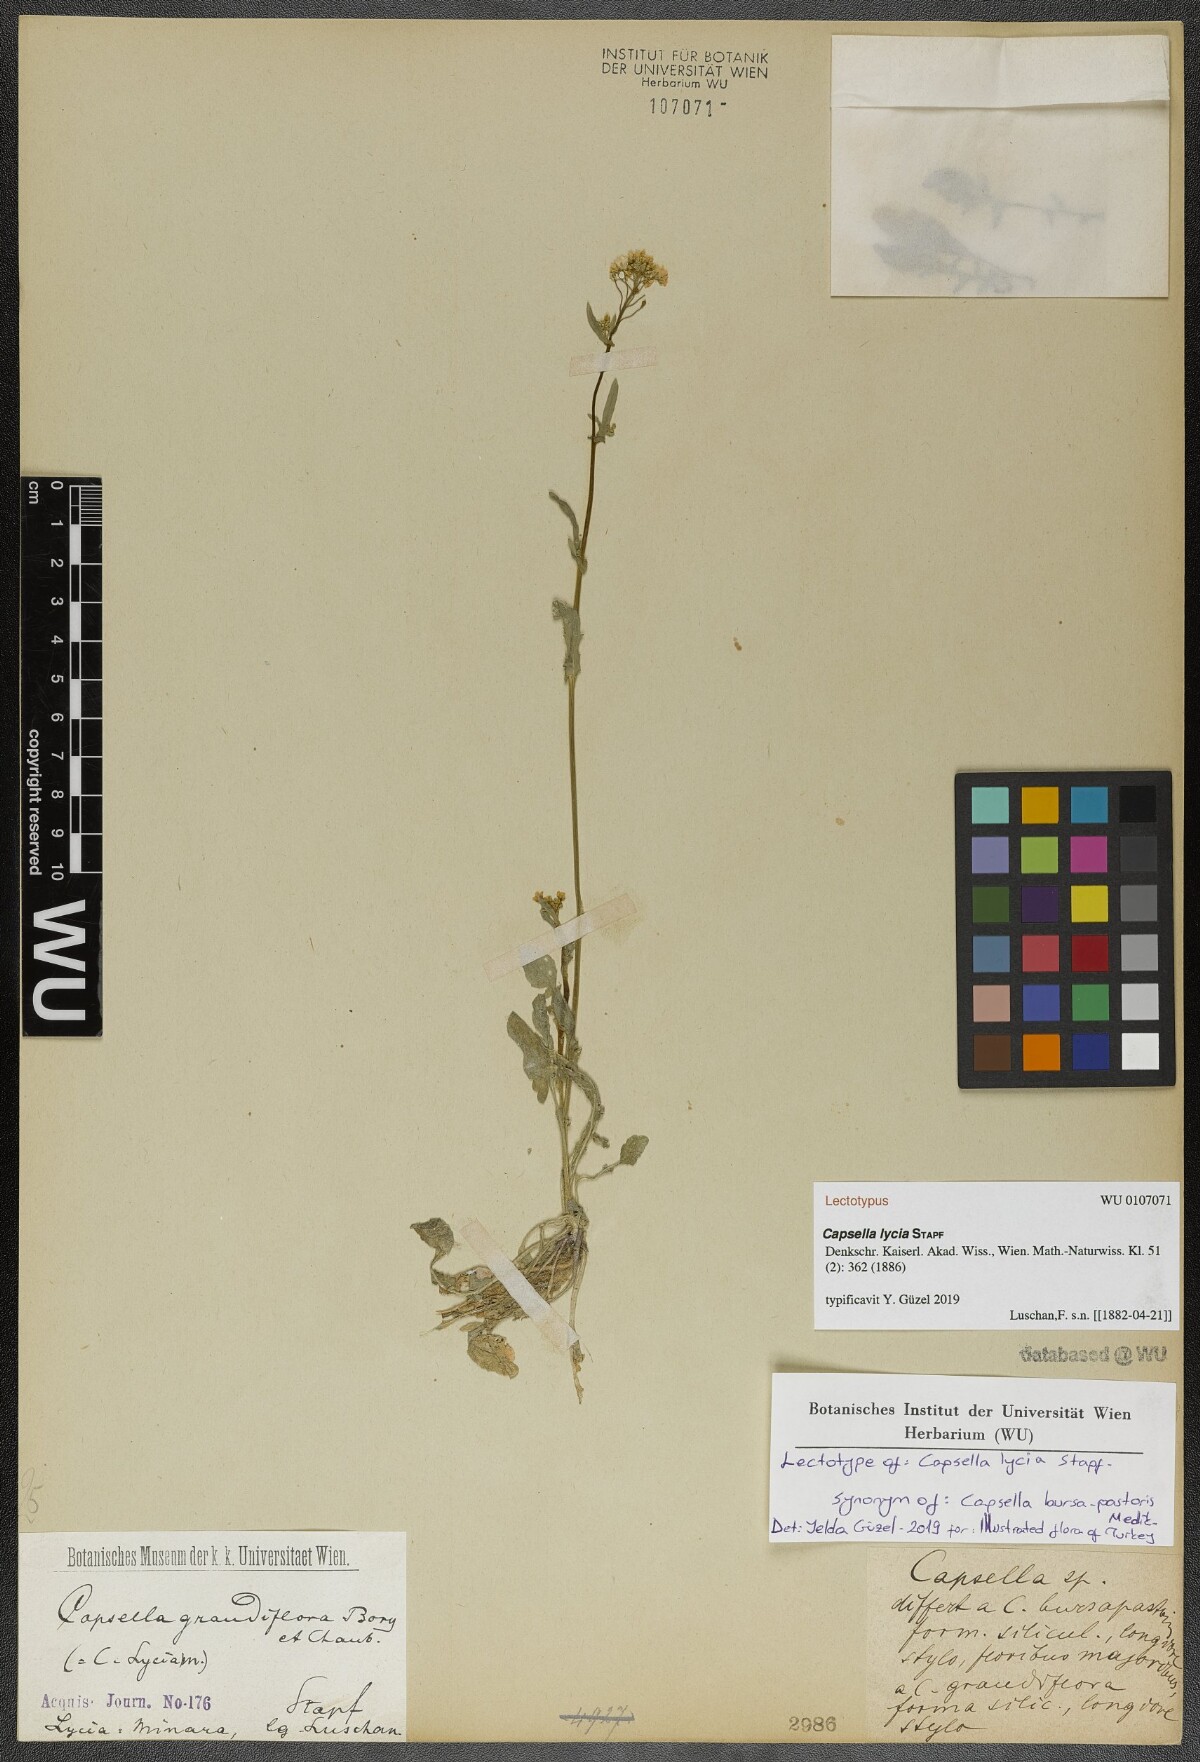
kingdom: Plantae
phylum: Tracheophyta
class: Magnoliopsida
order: Brassicales
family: Brassicaceae
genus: Capsella
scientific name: Capsella bursa-pastoris
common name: Shepherd's purse
